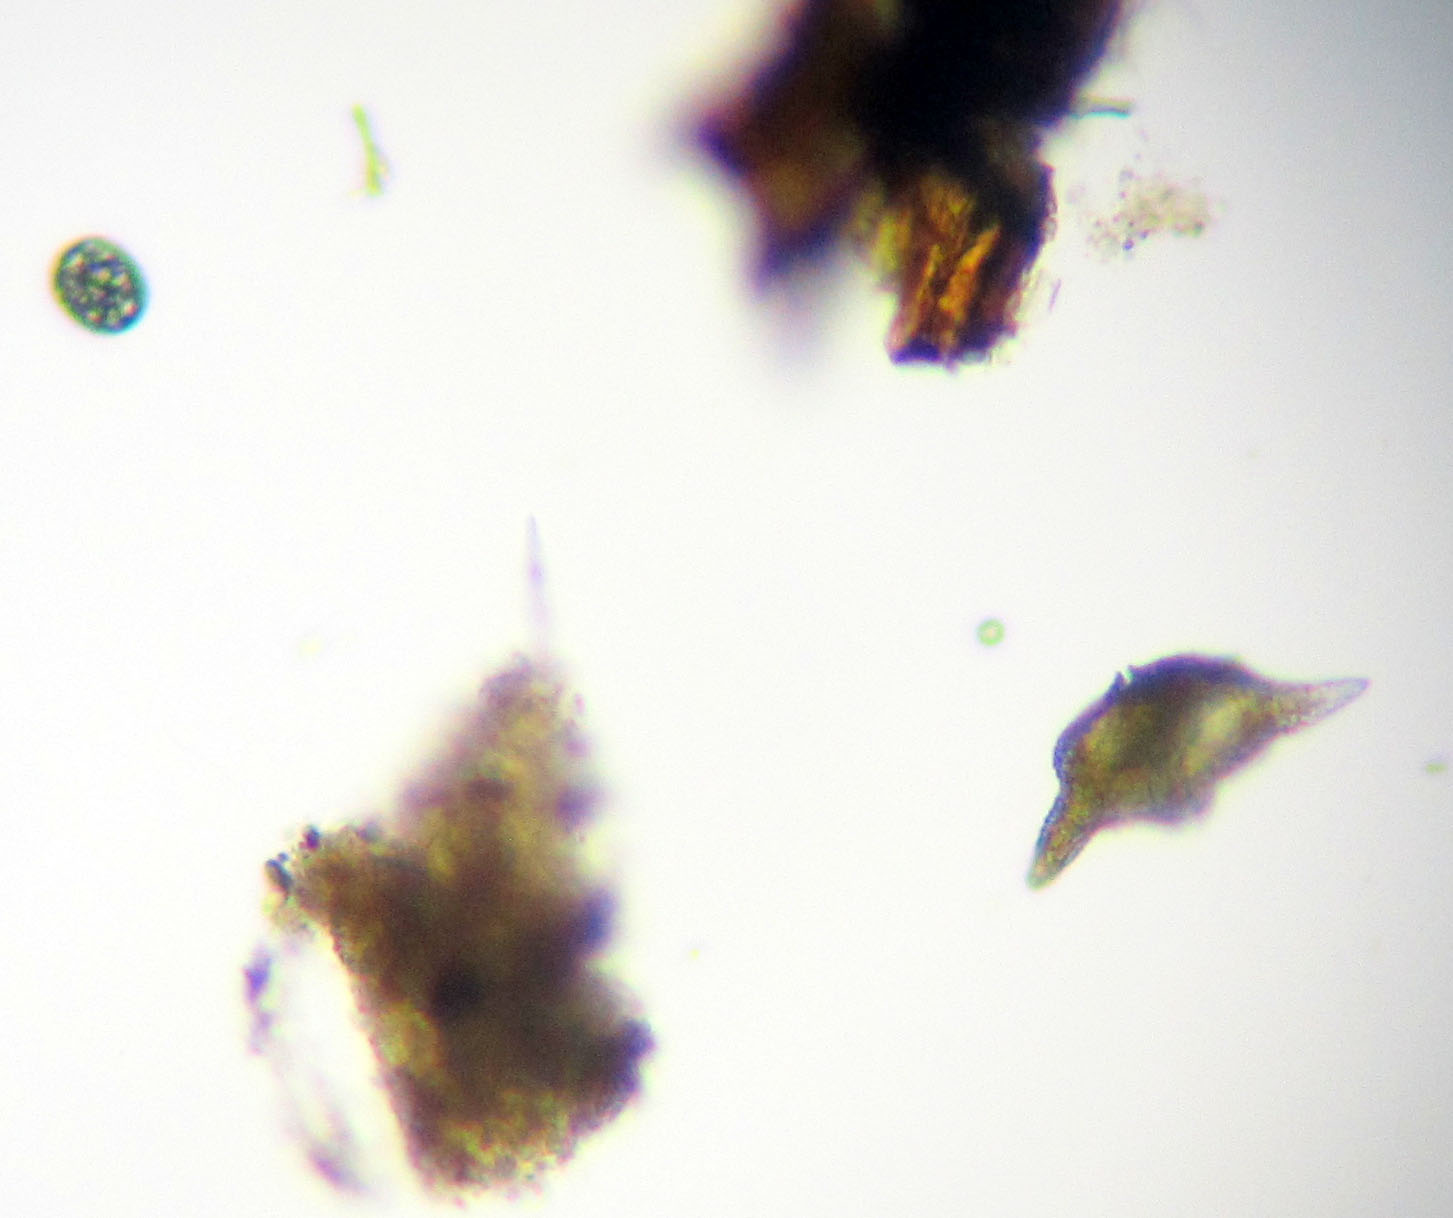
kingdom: Chromista
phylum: Myzozoa
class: Dinophyceae
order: Gonyaulacales
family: Ceratiaceae
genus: Ceratium
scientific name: Ceratium cornutum
